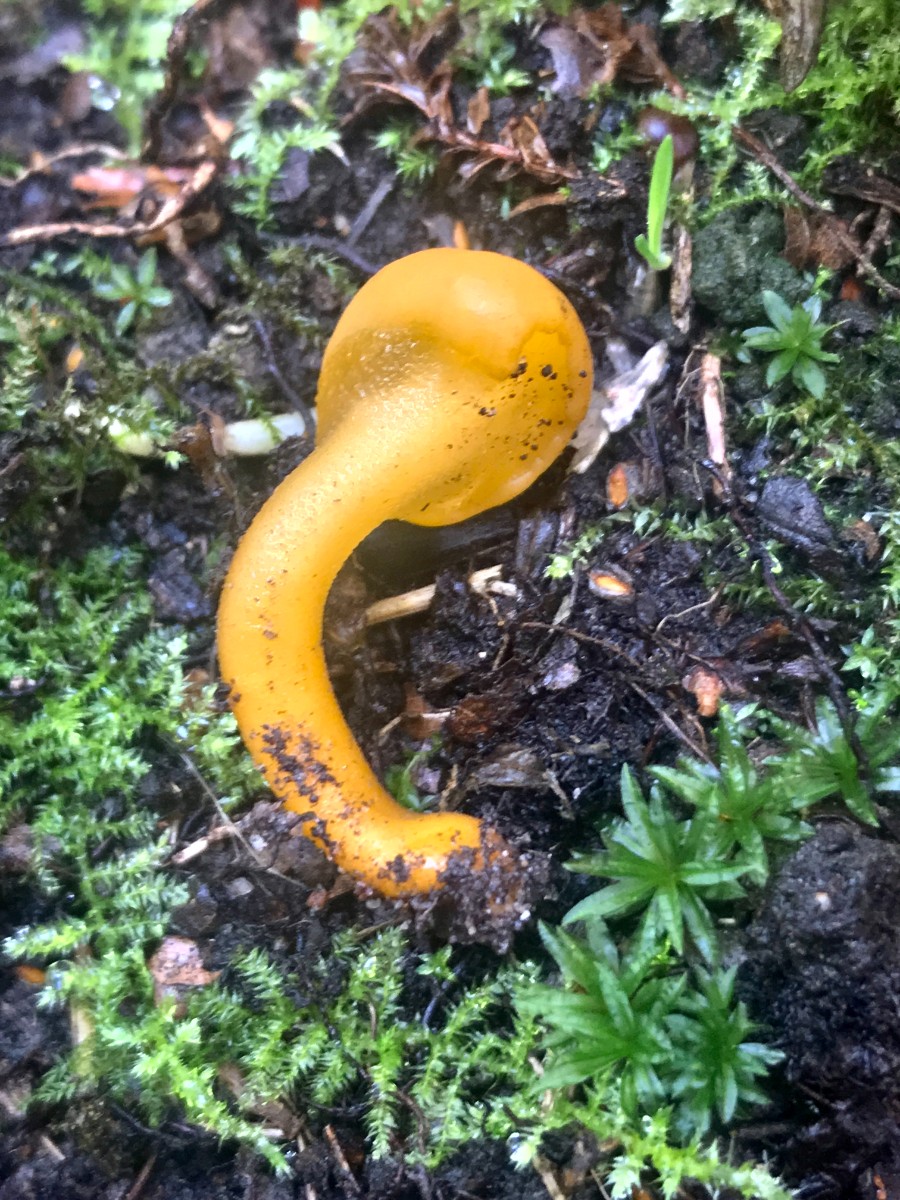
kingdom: Fungi
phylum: Ascomycota
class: Leotiomycetes
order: Leotiales
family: Leotiaceae
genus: Leotia
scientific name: Leotia lubrica
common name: ravsvamp
